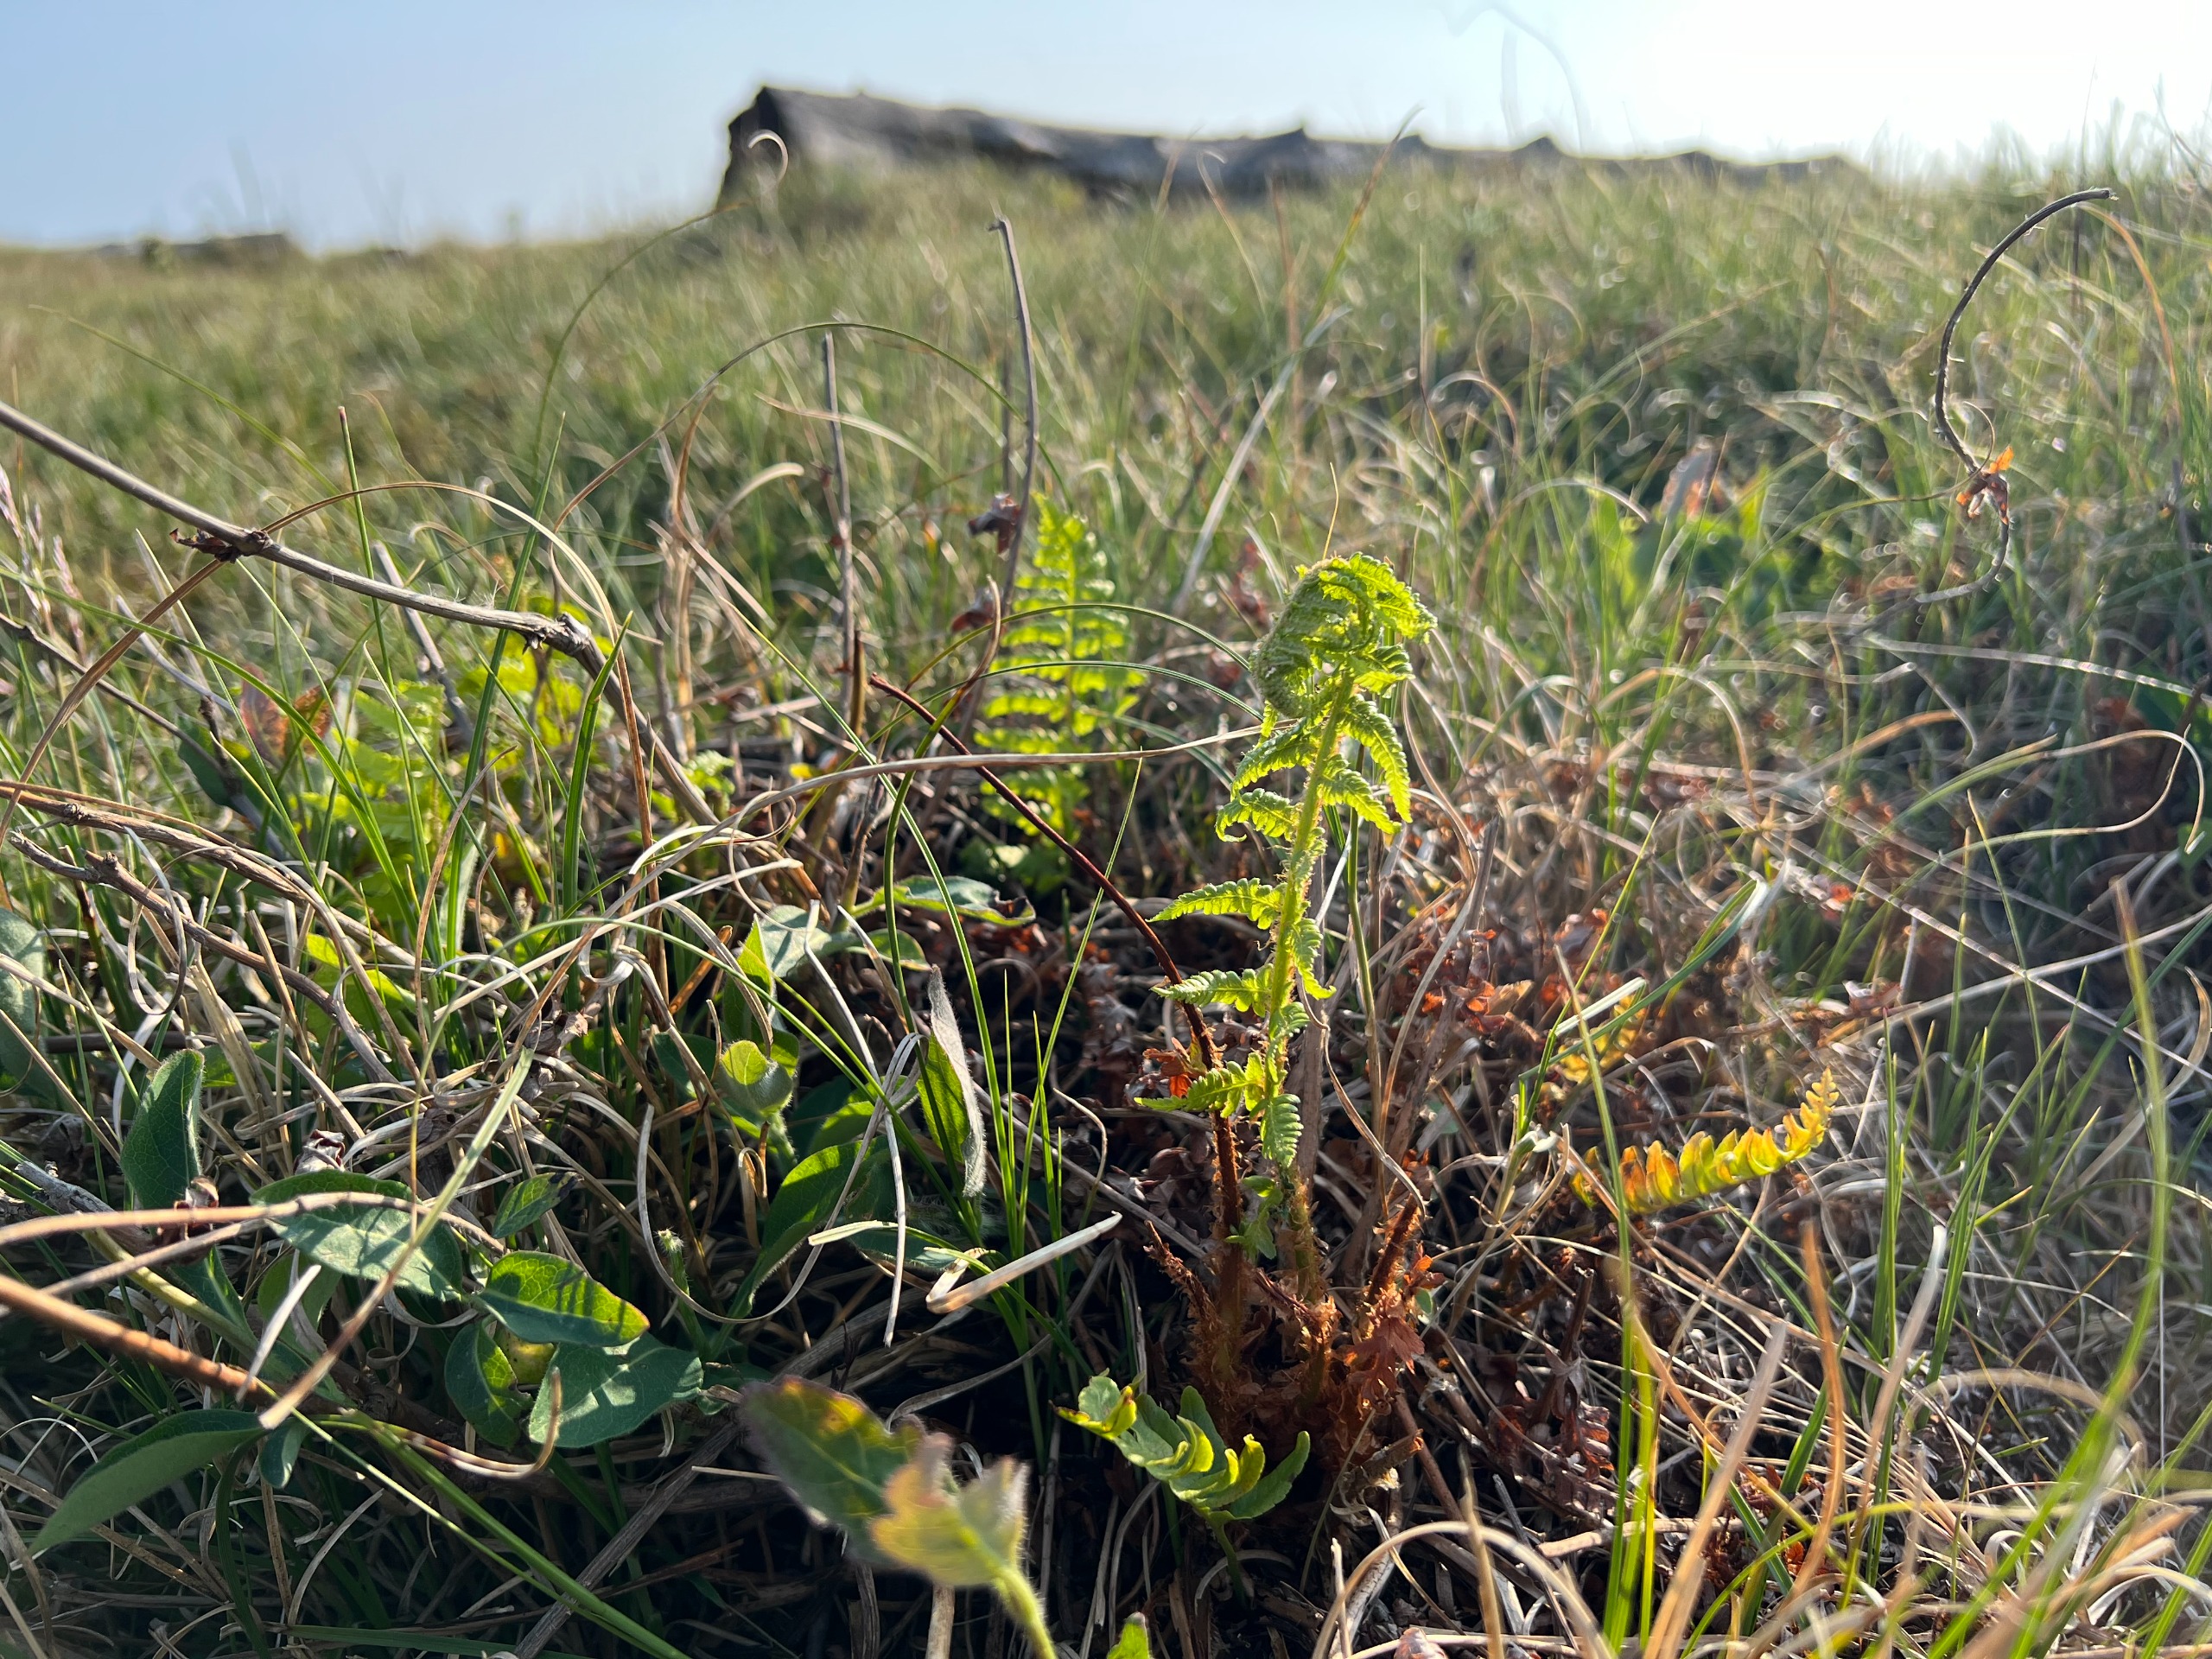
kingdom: Plantae
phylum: Tracheophyta
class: Polypodiopsida
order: Polypodiales
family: Dryopteridaceae
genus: Dryopteris
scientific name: Dryopteris filix-mas
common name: Almindelig mangeløv
